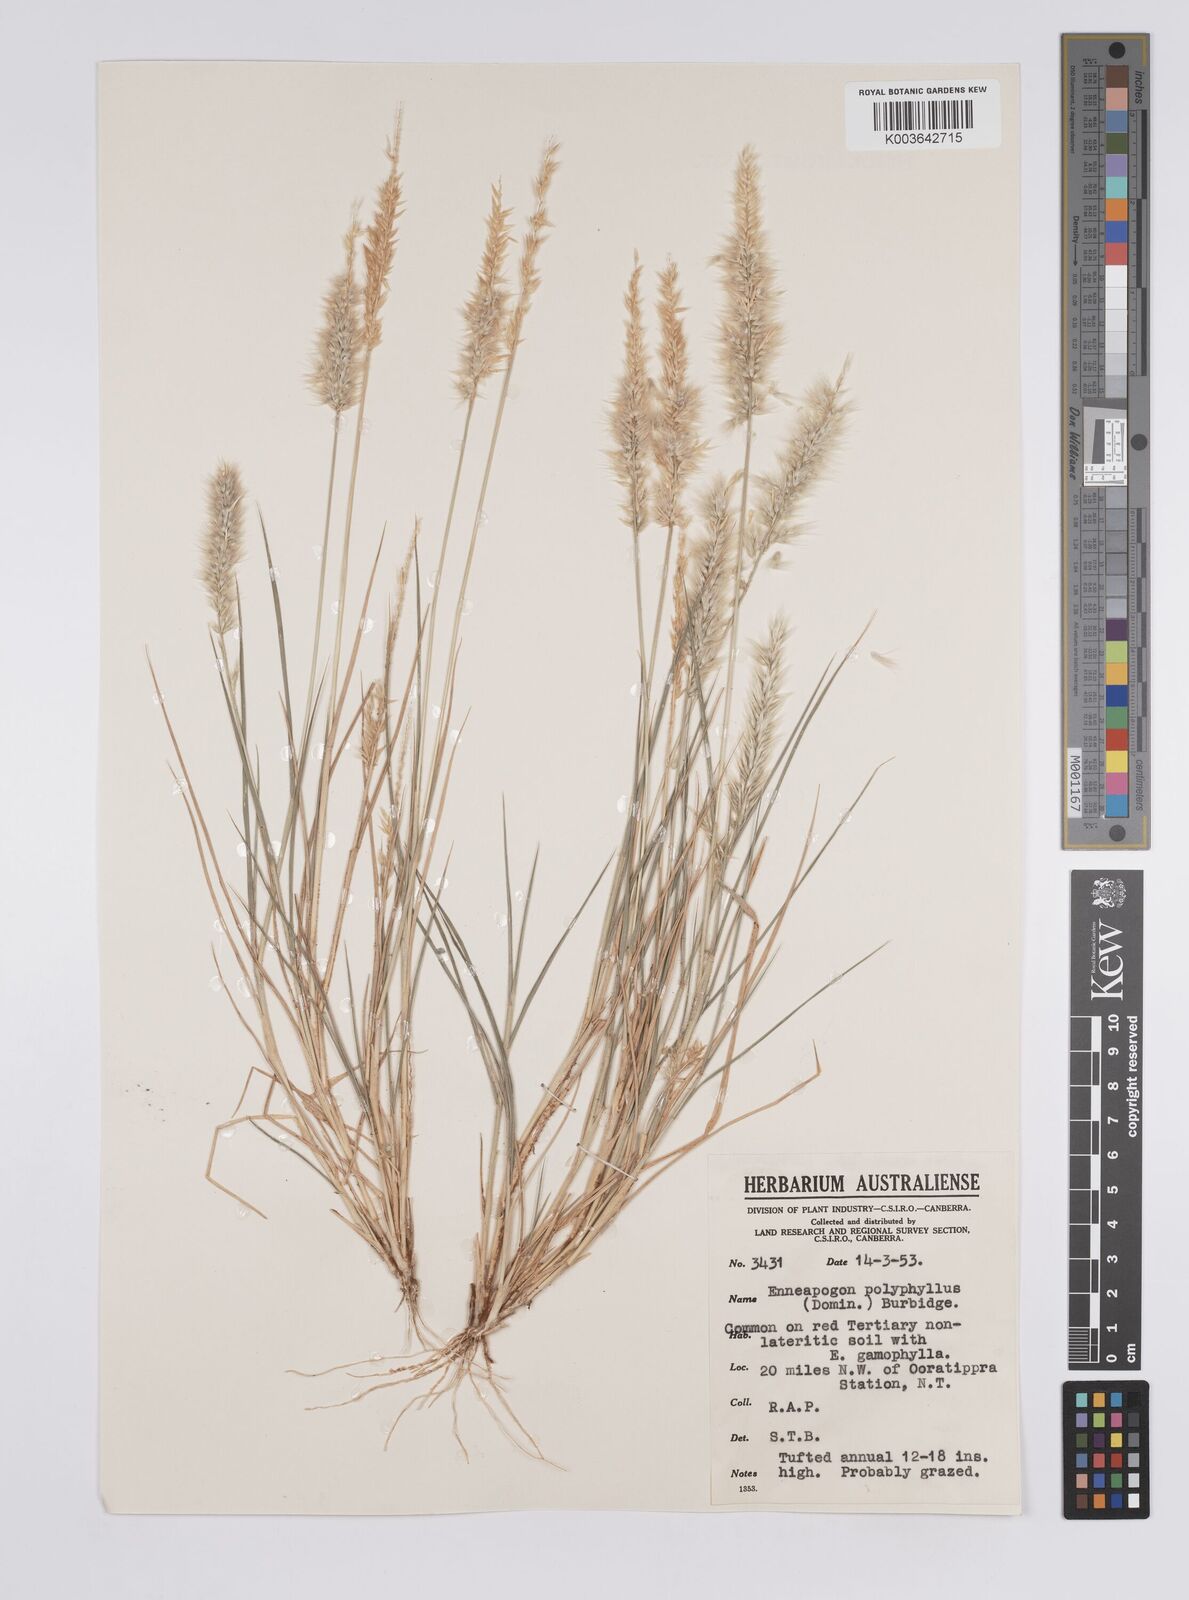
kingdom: Plantae
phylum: Tracheophyta
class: Liliopsida
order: Poales
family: Poaceae
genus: Enneapogon
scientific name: Enneapogon polyphyllus
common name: Leafy nineawn
